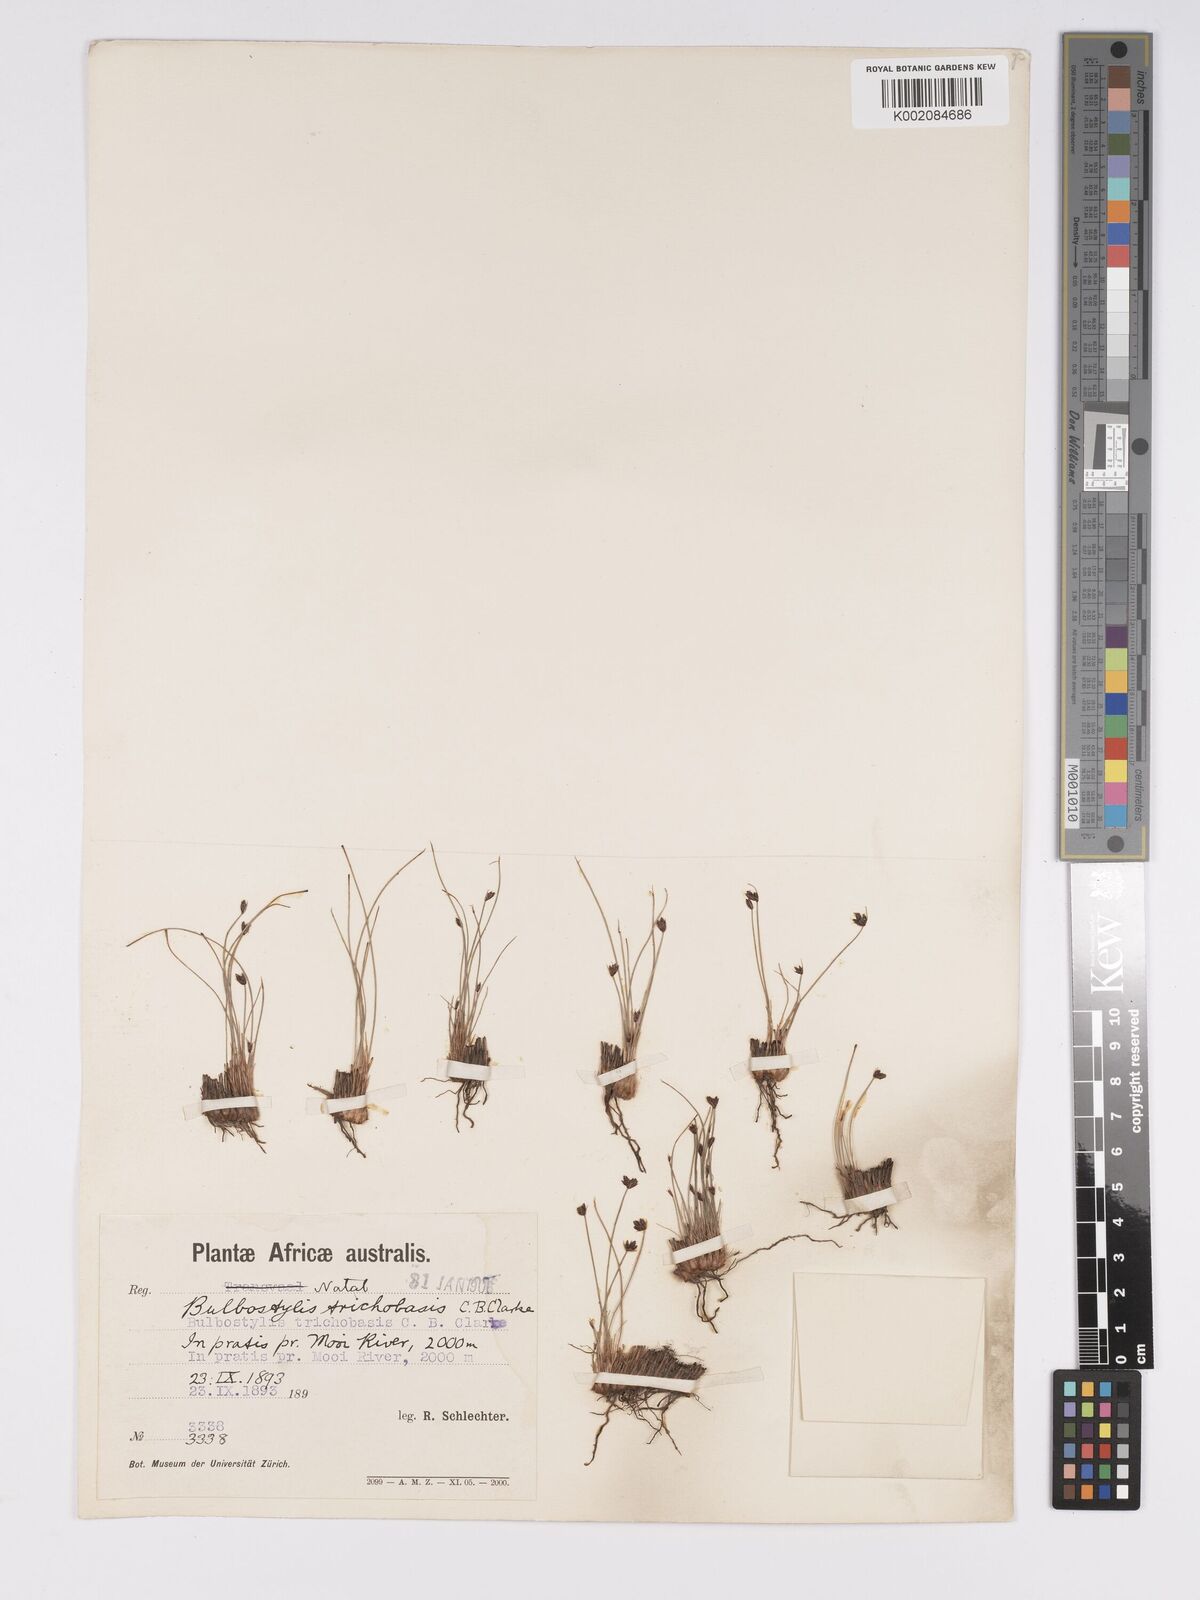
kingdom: Plantae
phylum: Tracheophyta
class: Liliopsida
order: Poales
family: Cyperaceae
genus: Bulbostylis
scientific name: Bulbostylis trichobasis
